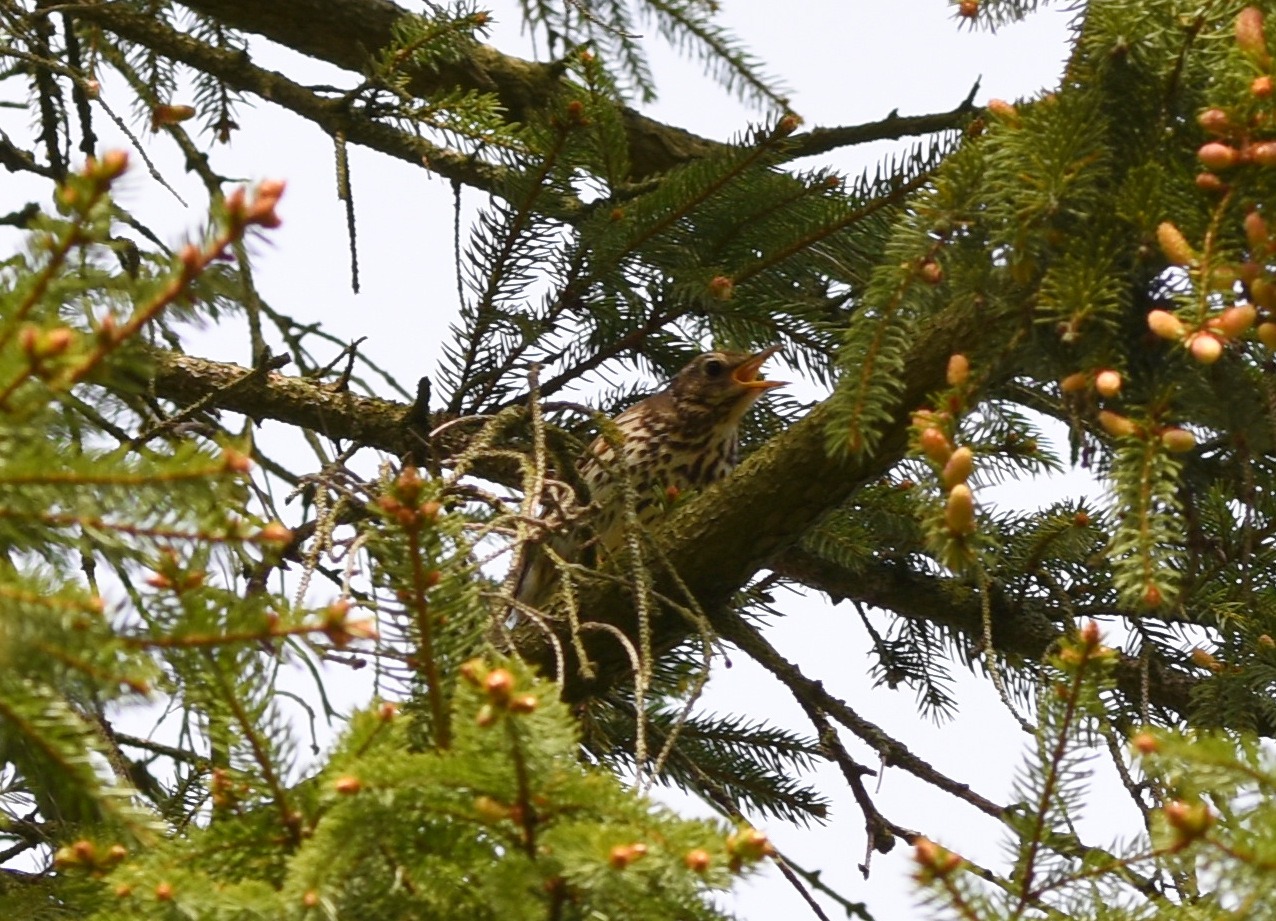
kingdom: Animalia
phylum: Chordata
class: Aves
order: Passeriformes
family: Turdidae
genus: Turdus
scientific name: Turdus philomelos
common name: Sangdrossel
